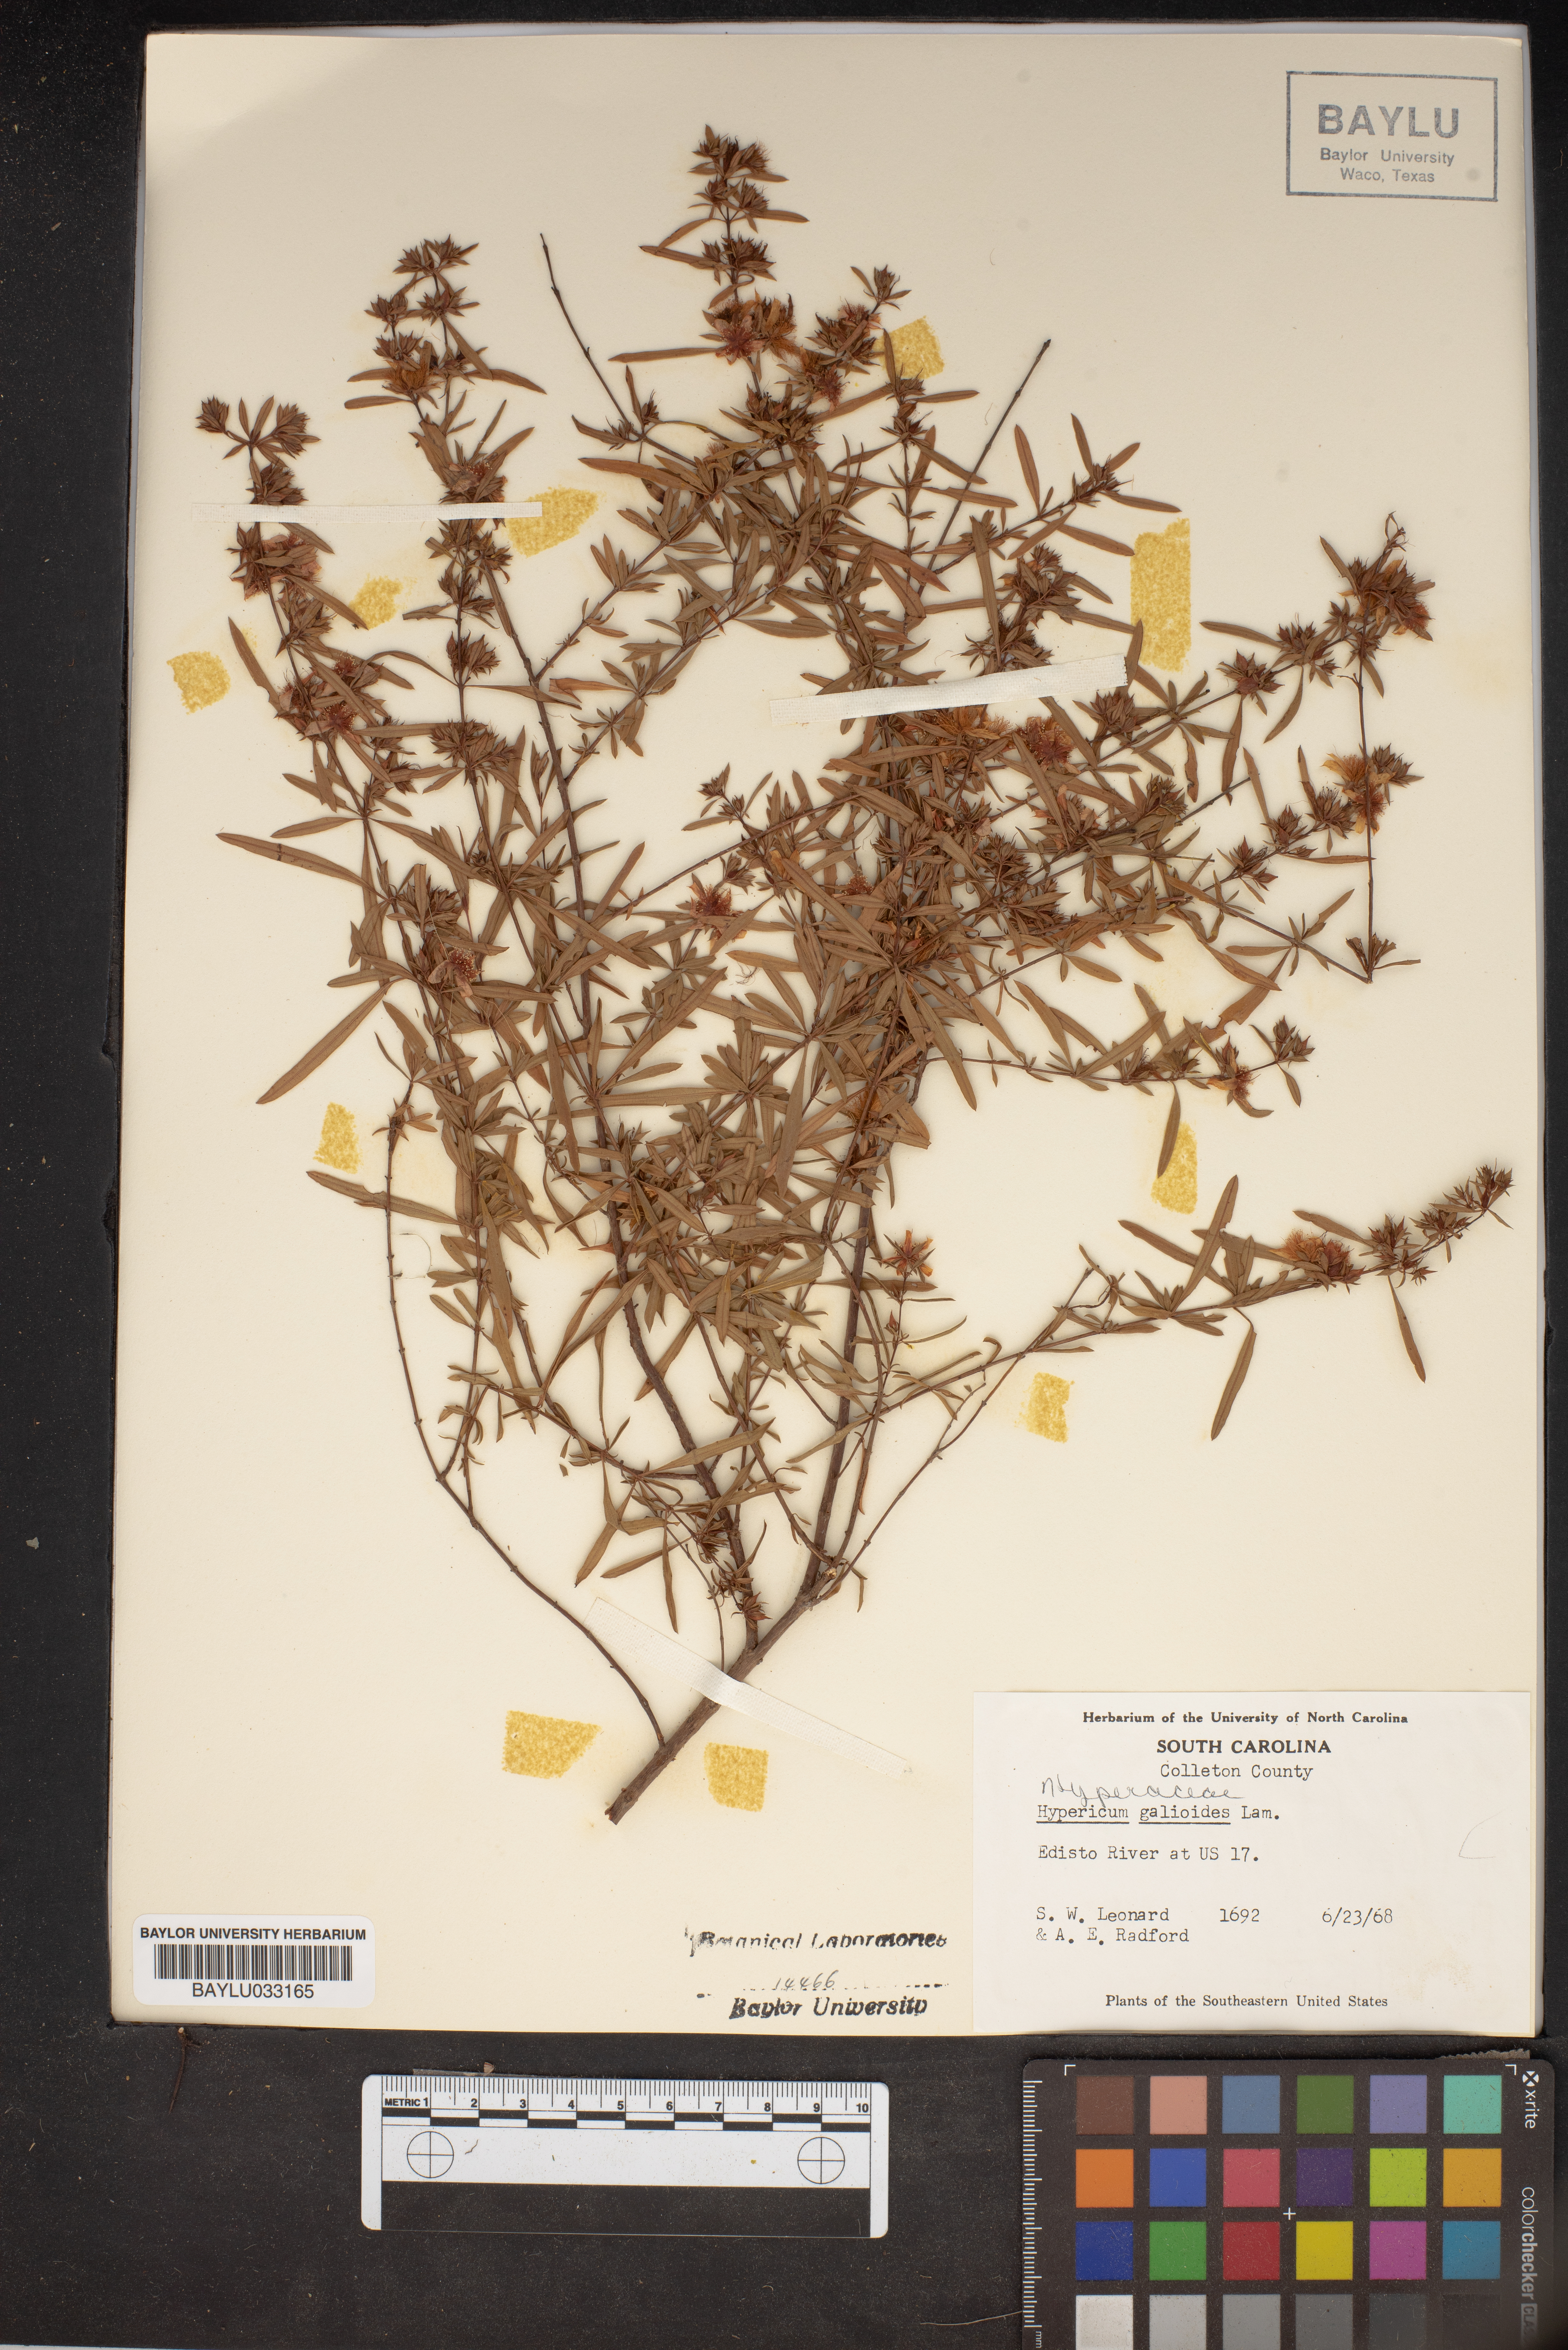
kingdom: Plantae
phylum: Tracheophyta
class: Magnoliopsida
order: Malpighiales
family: Hypericaceae
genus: Hypericum
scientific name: Hypericum galioides
